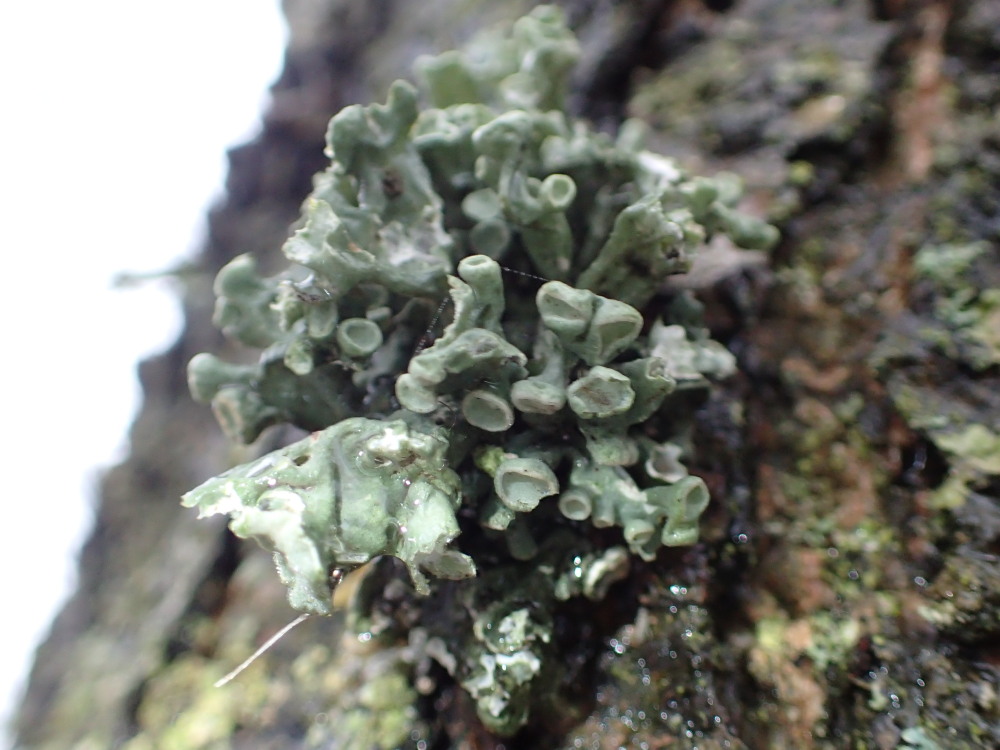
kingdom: Fungi
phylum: Ascomycota
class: Lecanoromycetes
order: Lecanorales
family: Ramalinaceae
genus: Ramalina
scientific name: Ramalina fastigiata
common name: tue-grenlav
